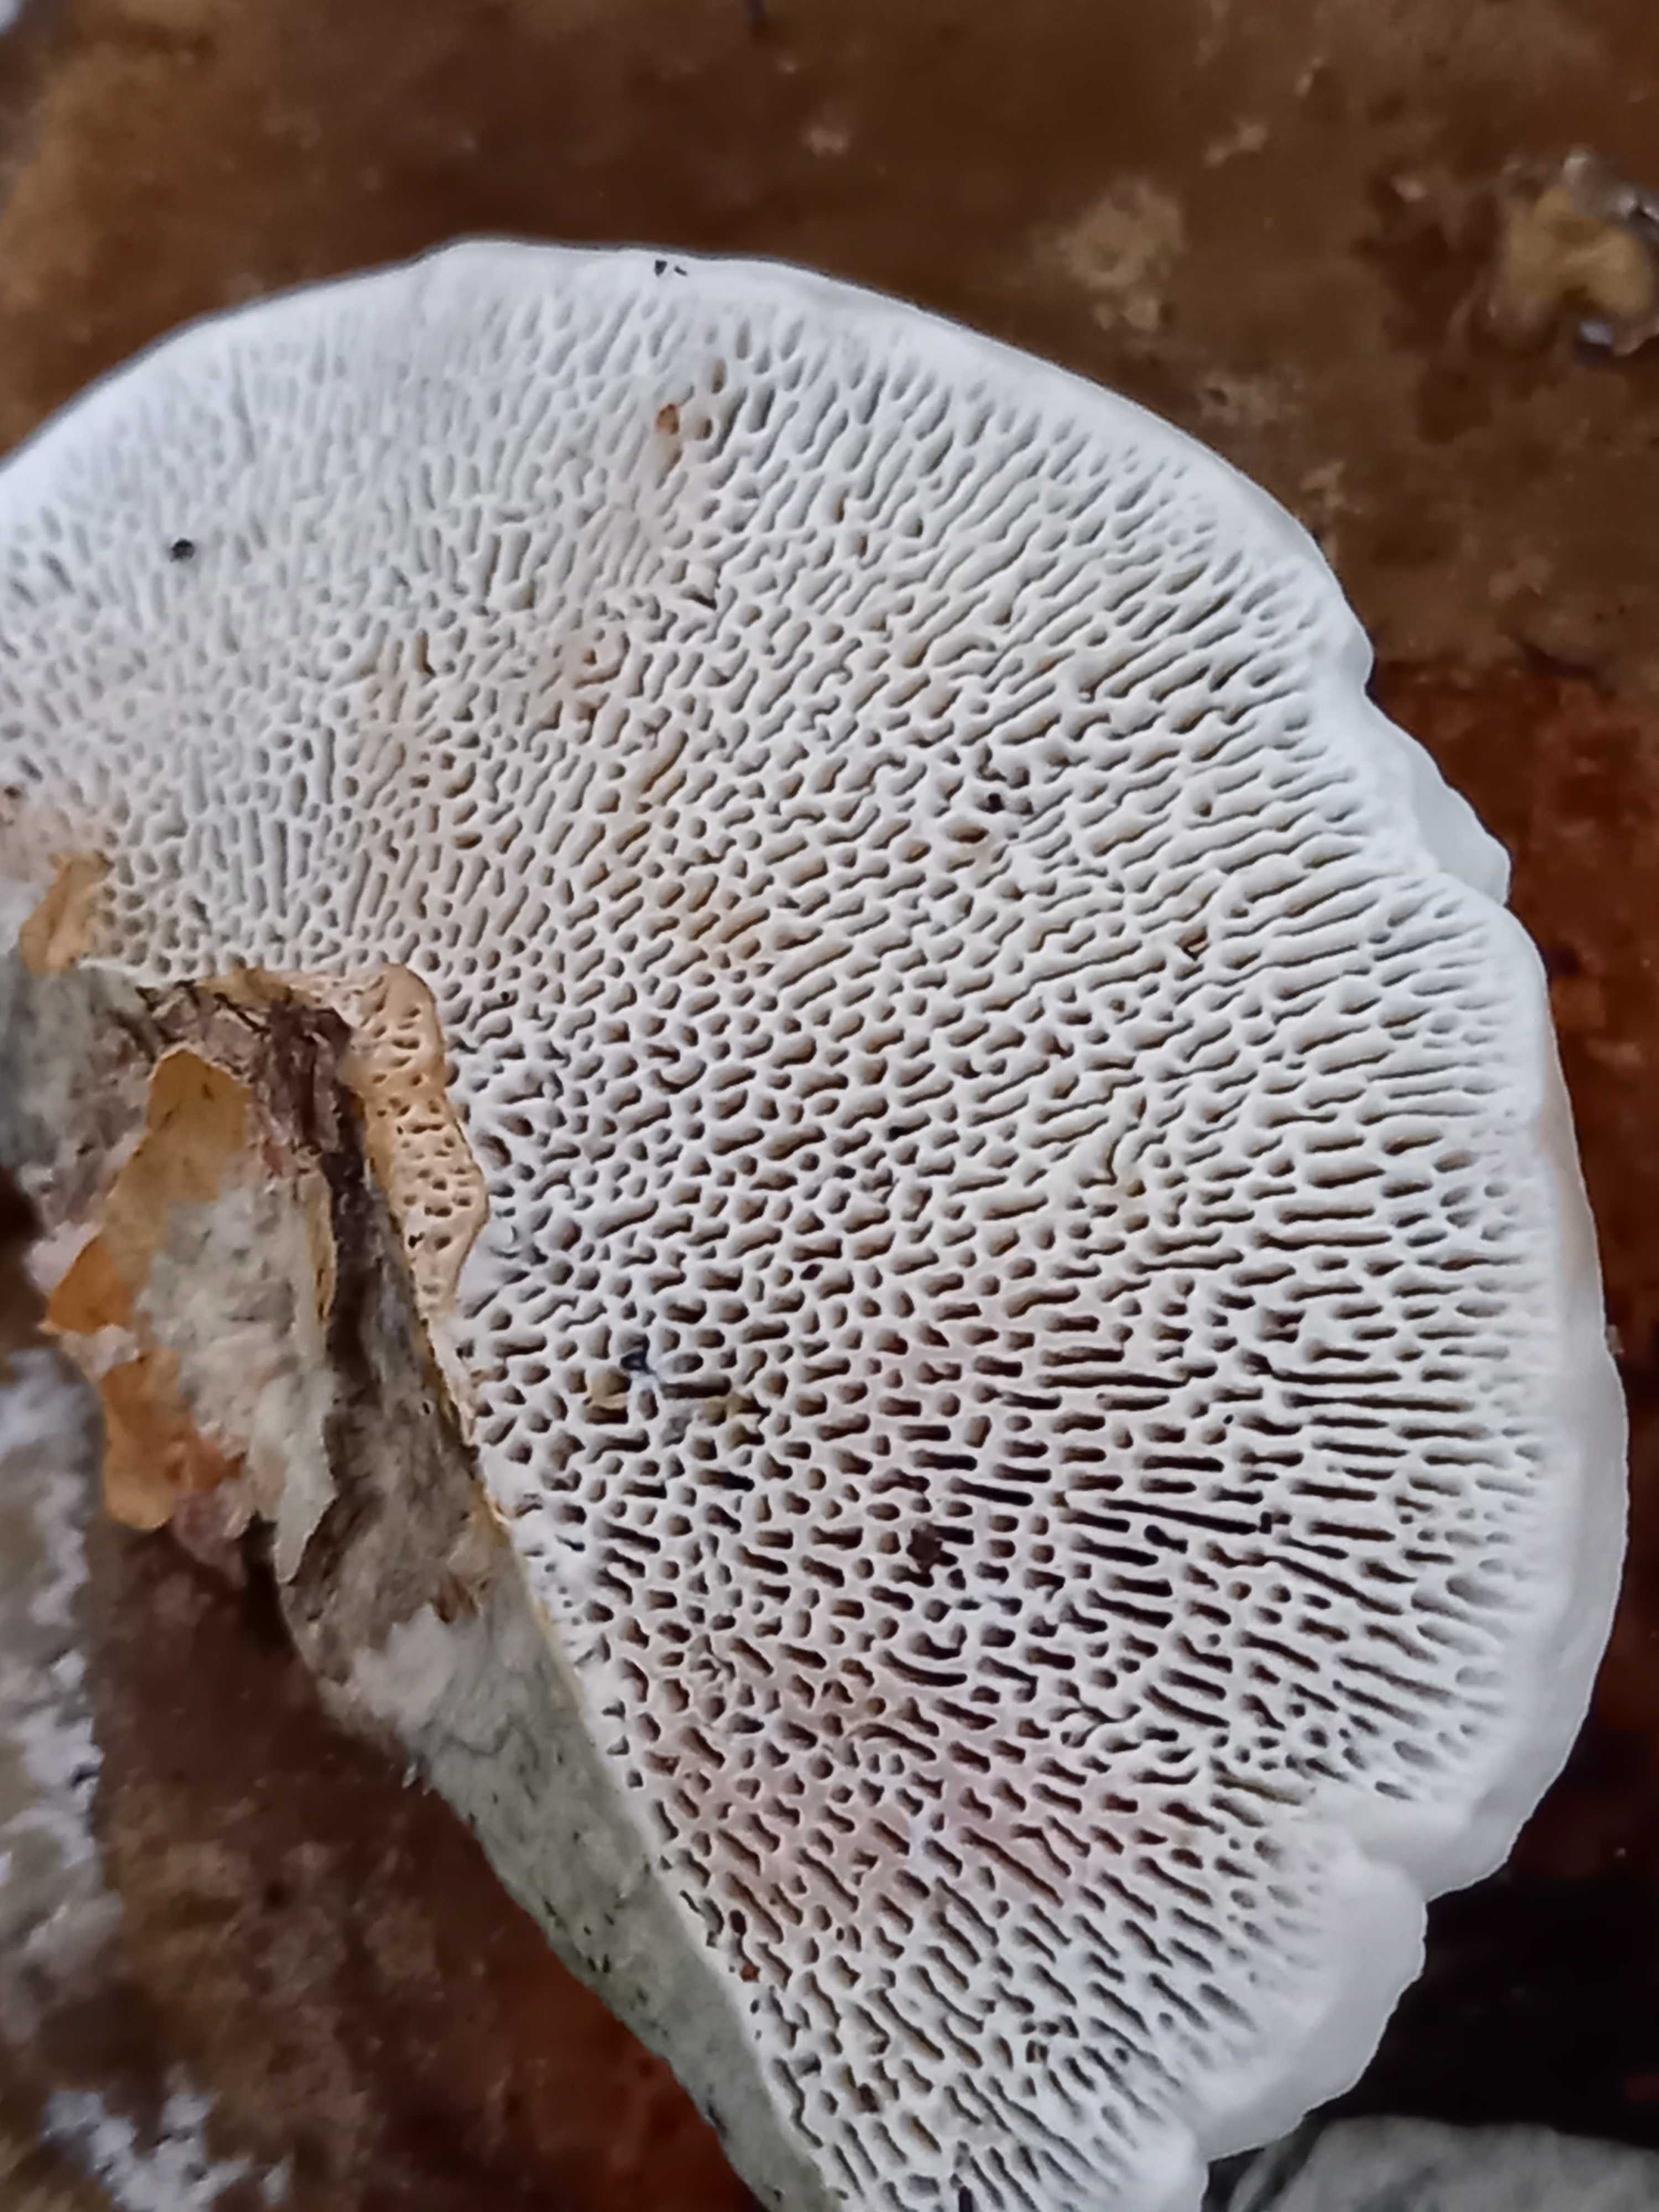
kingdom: Fungi
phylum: Basidiomycota
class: Agaricomycetes
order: Polyporales
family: Polyporaceae
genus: Daedaleopsis
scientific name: Daedaleopsis confragosa
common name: rødmende læderporesvamp
